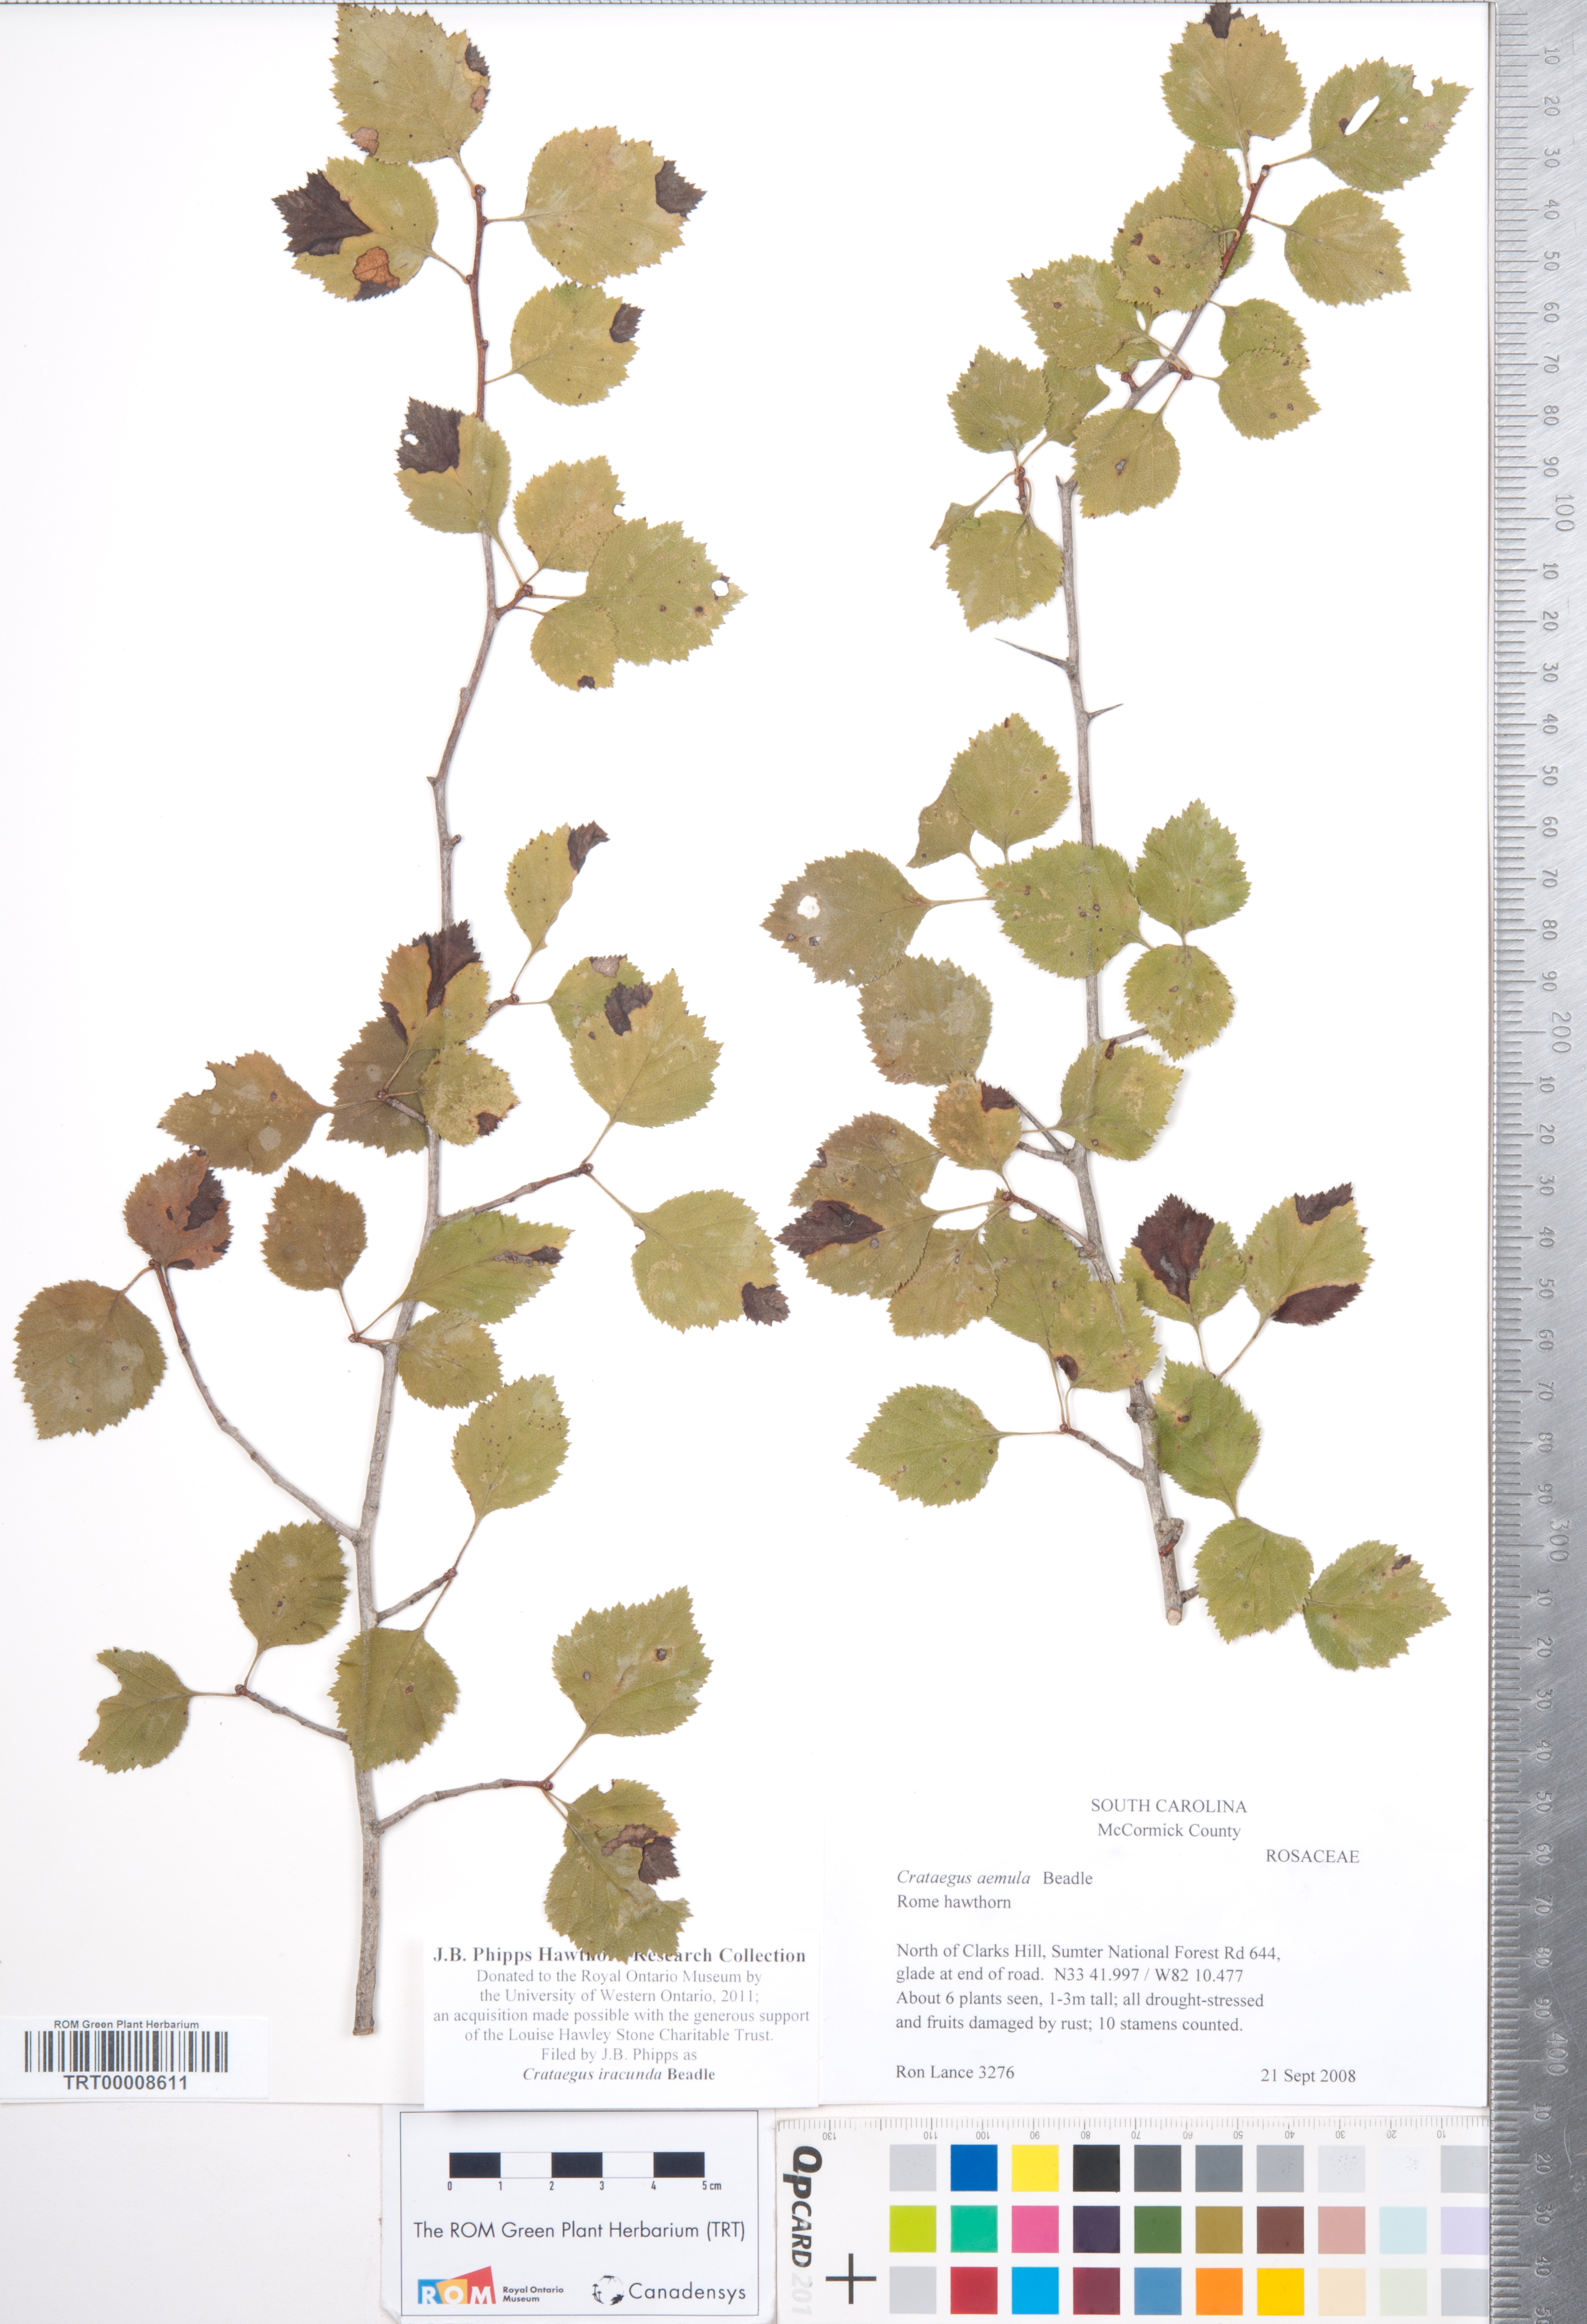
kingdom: Plantae
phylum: Tracheophyta
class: Magnoliopsida
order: Rosales
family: Rosaceae
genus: Crataegus
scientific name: Crataegus iracunda
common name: Stolon-bearing hawthorn
